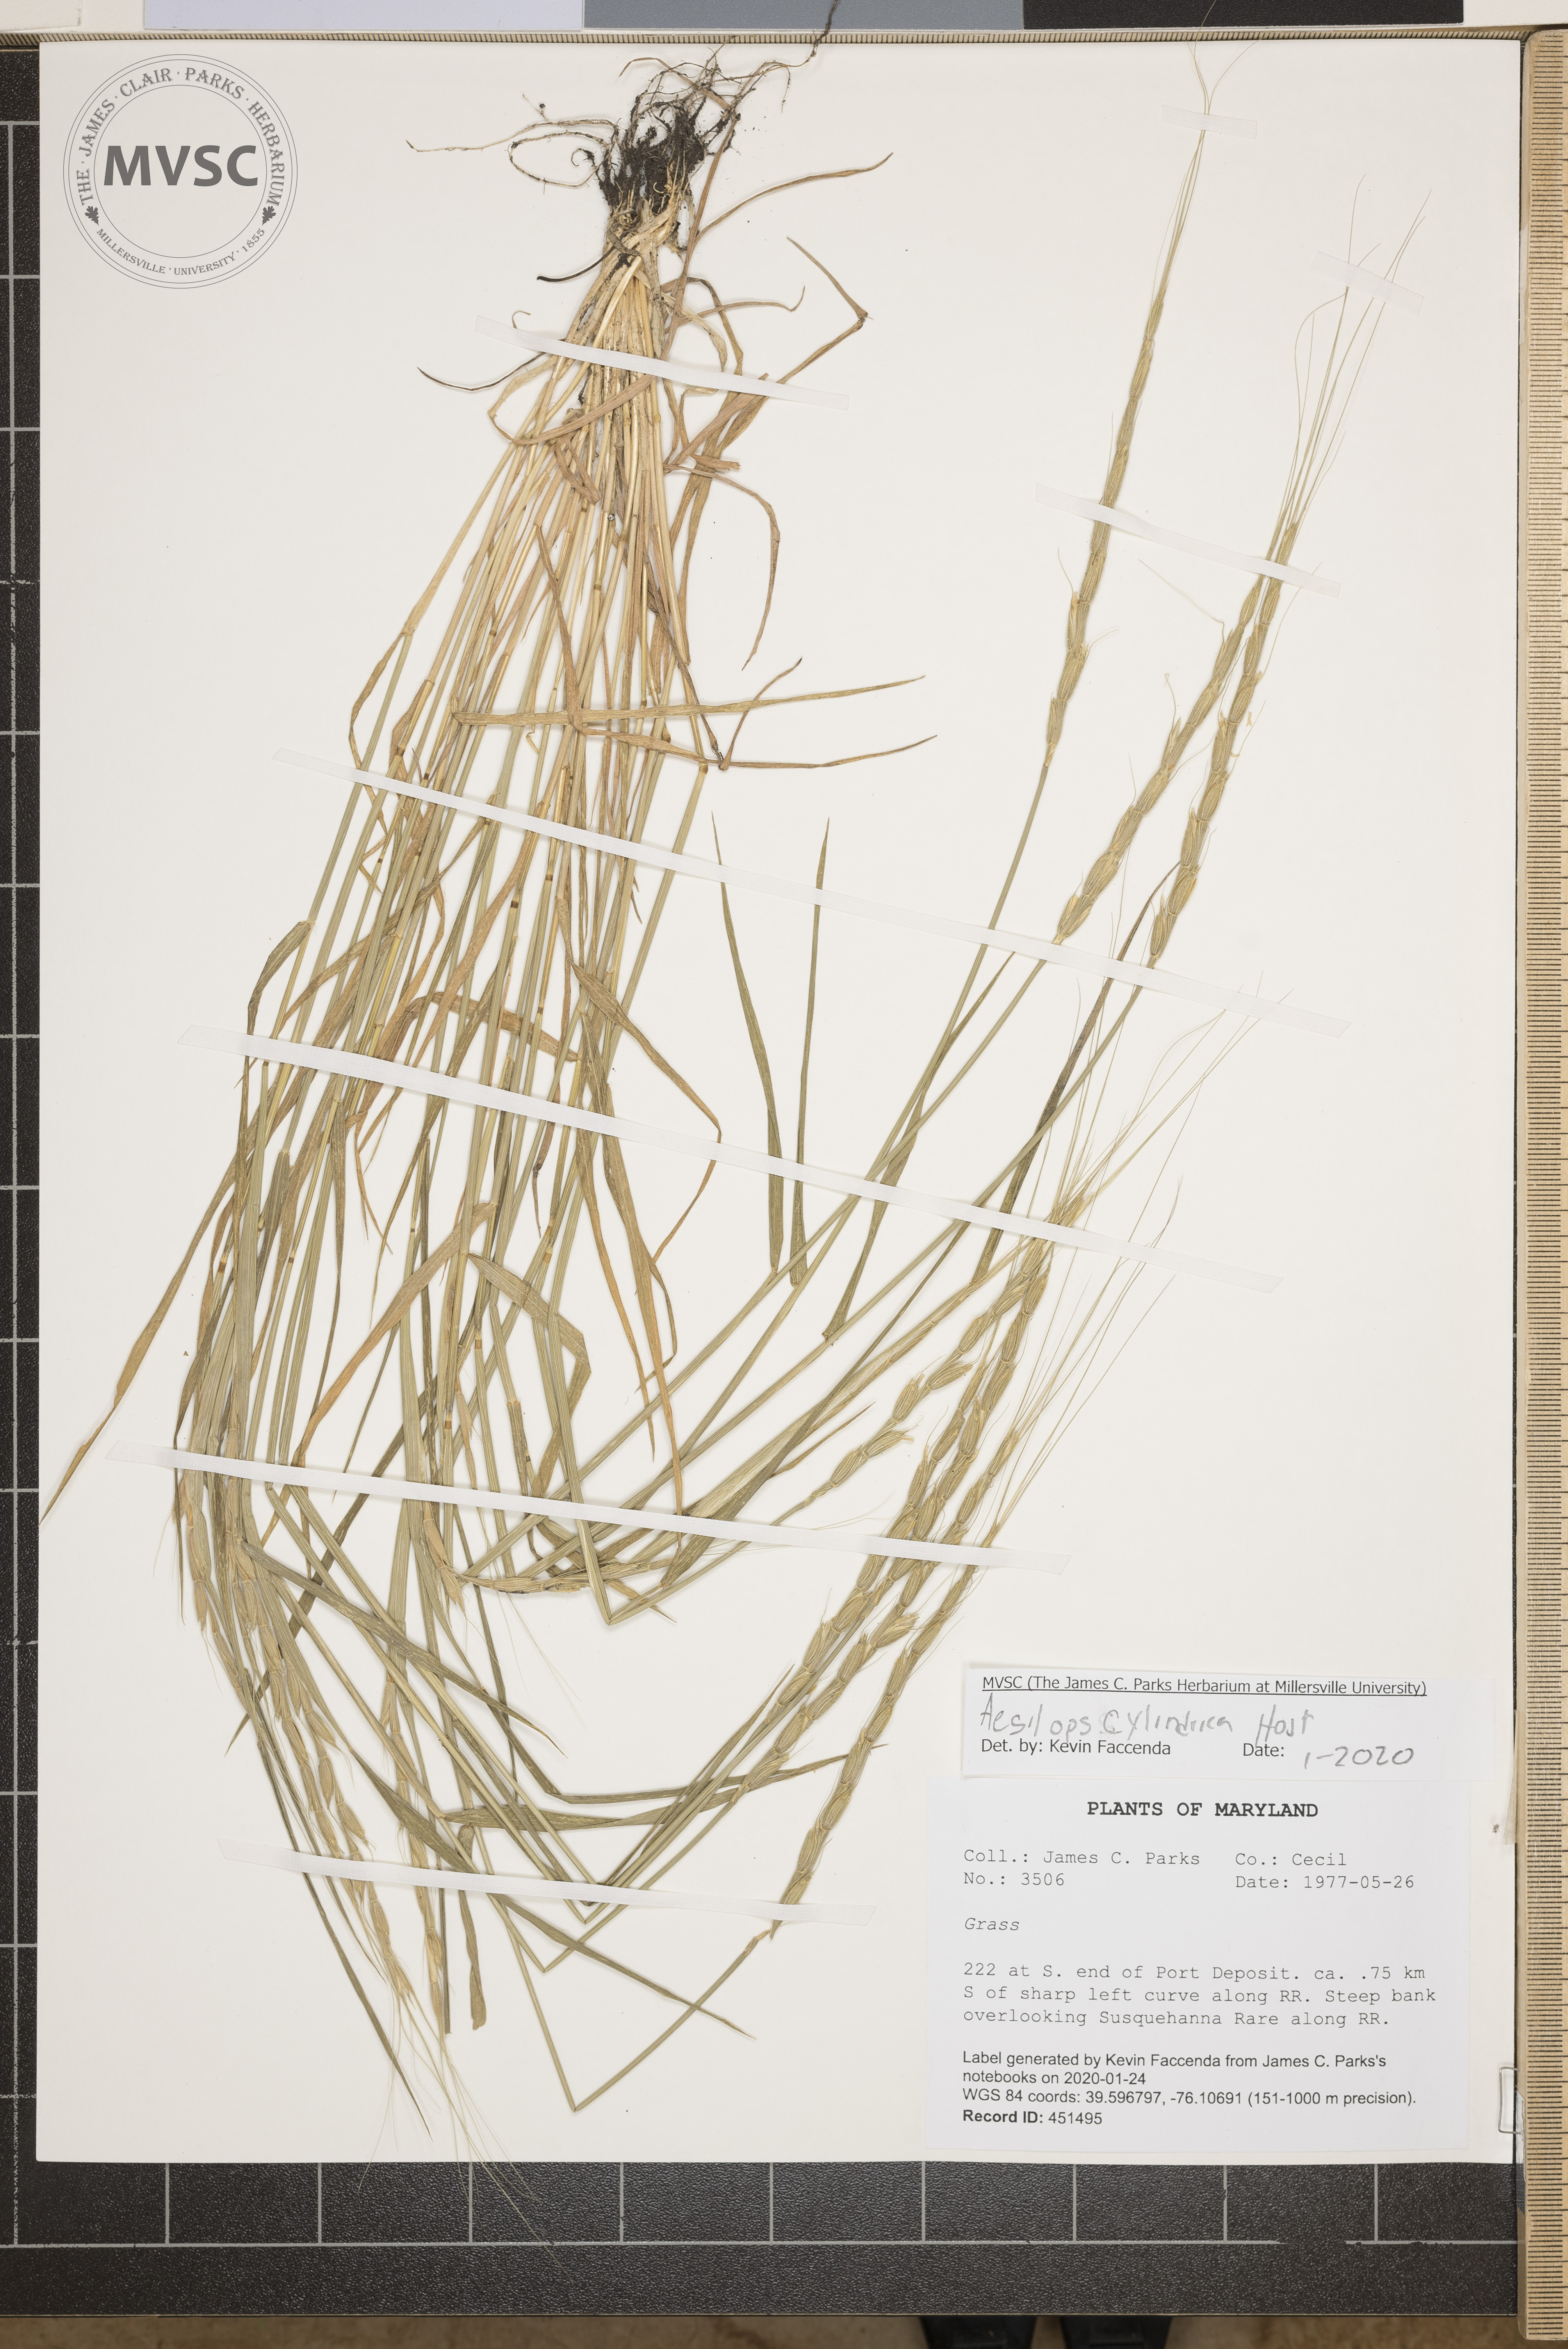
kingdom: Plantae
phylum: Tracheophyta
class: Liliopsida
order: Poales
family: Poaceae
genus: Aegilops
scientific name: Aegilops cylindrica
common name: Jointed goatgrass
